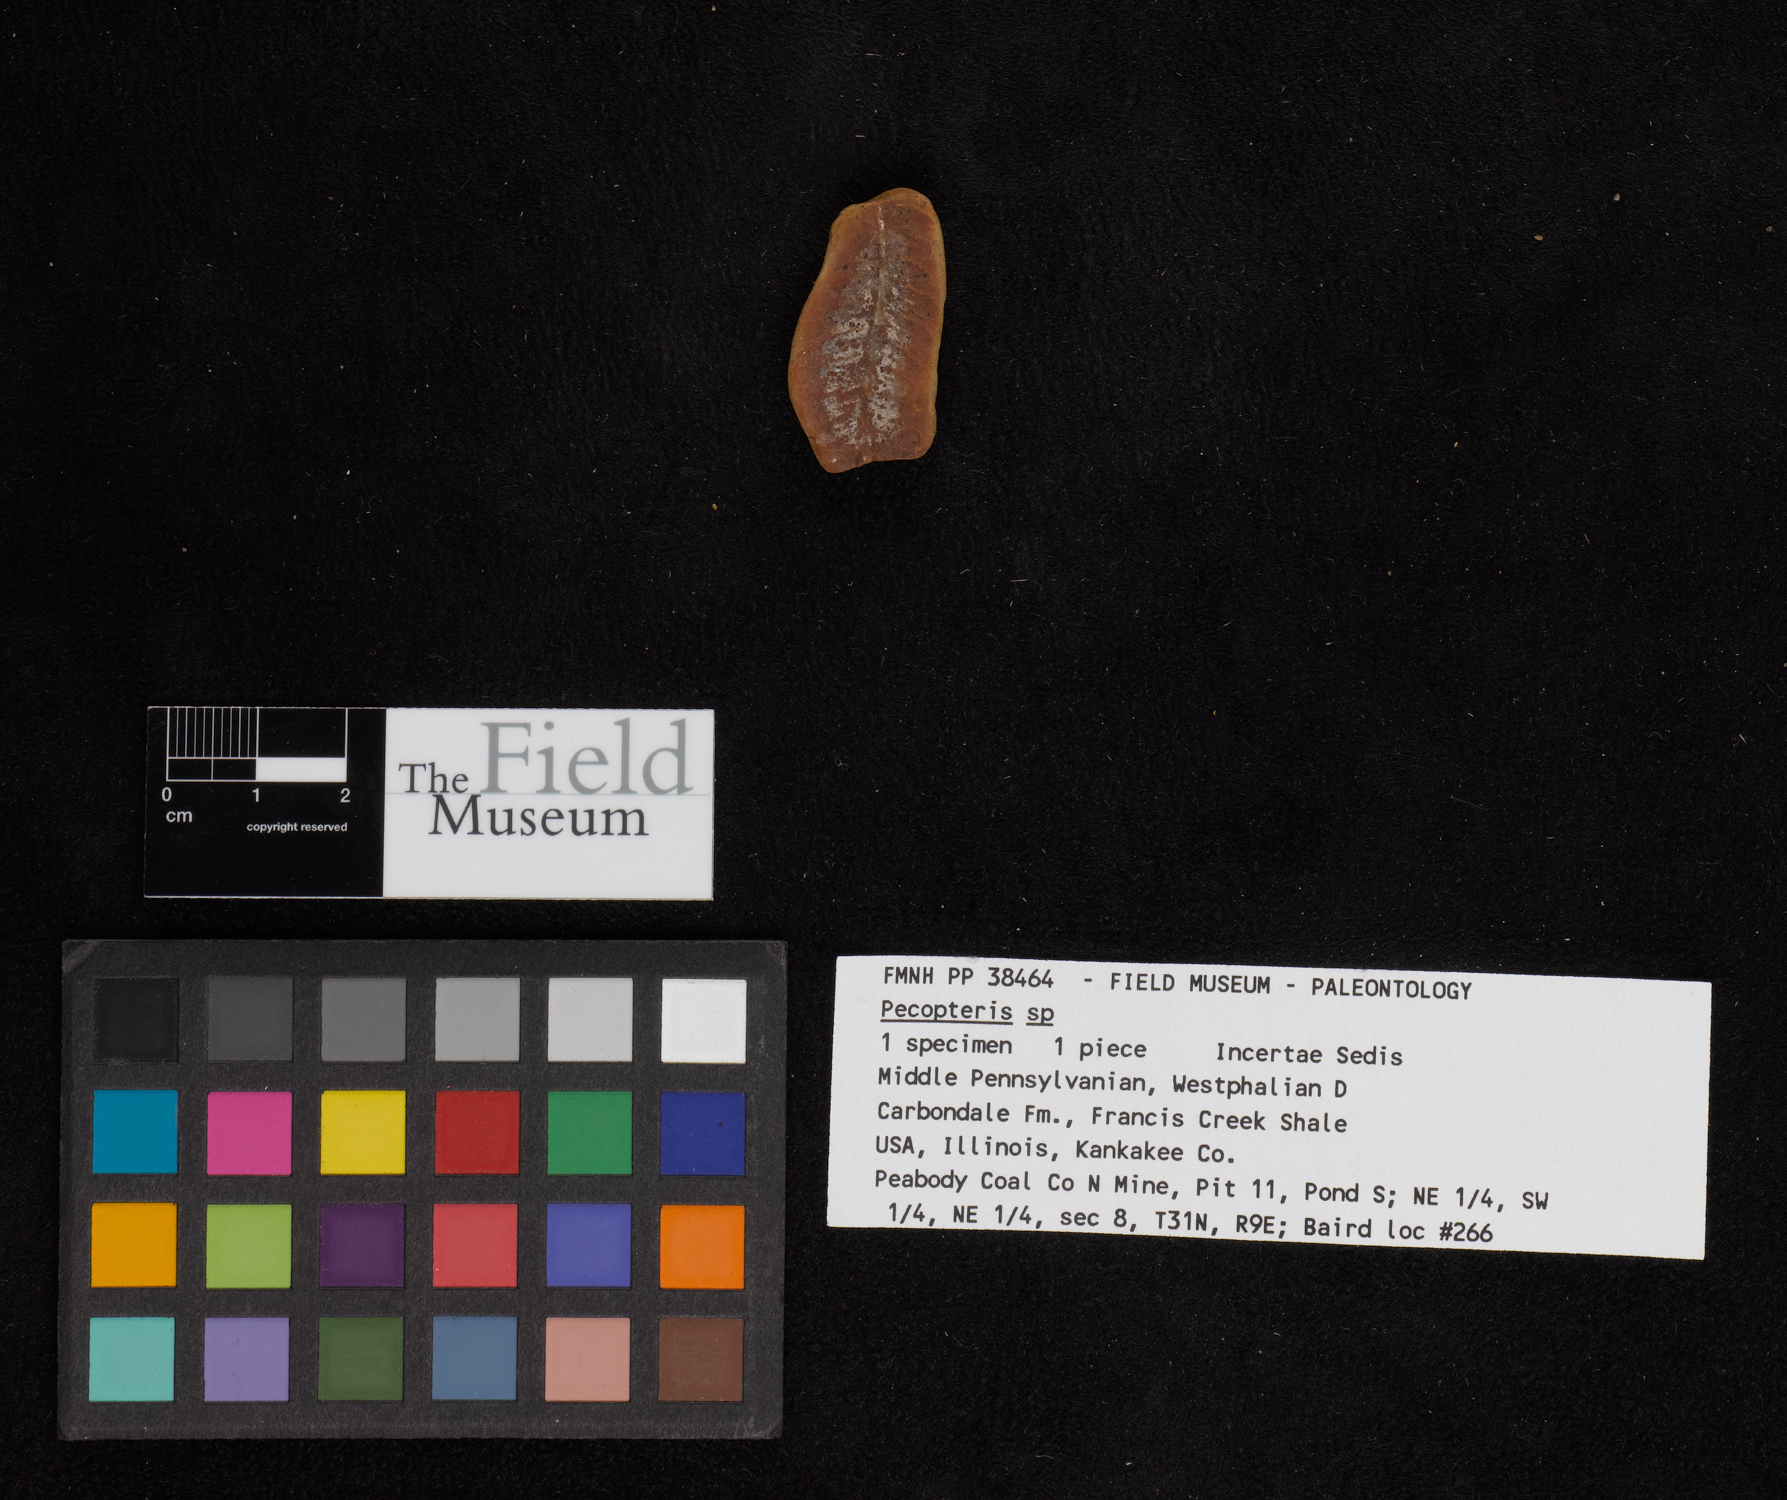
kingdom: Plantae
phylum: Tracheophyta
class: Polypodiopsida
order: Marattiales
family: Asterothecaceae
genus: Pecopteris
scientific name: Pecopteris
